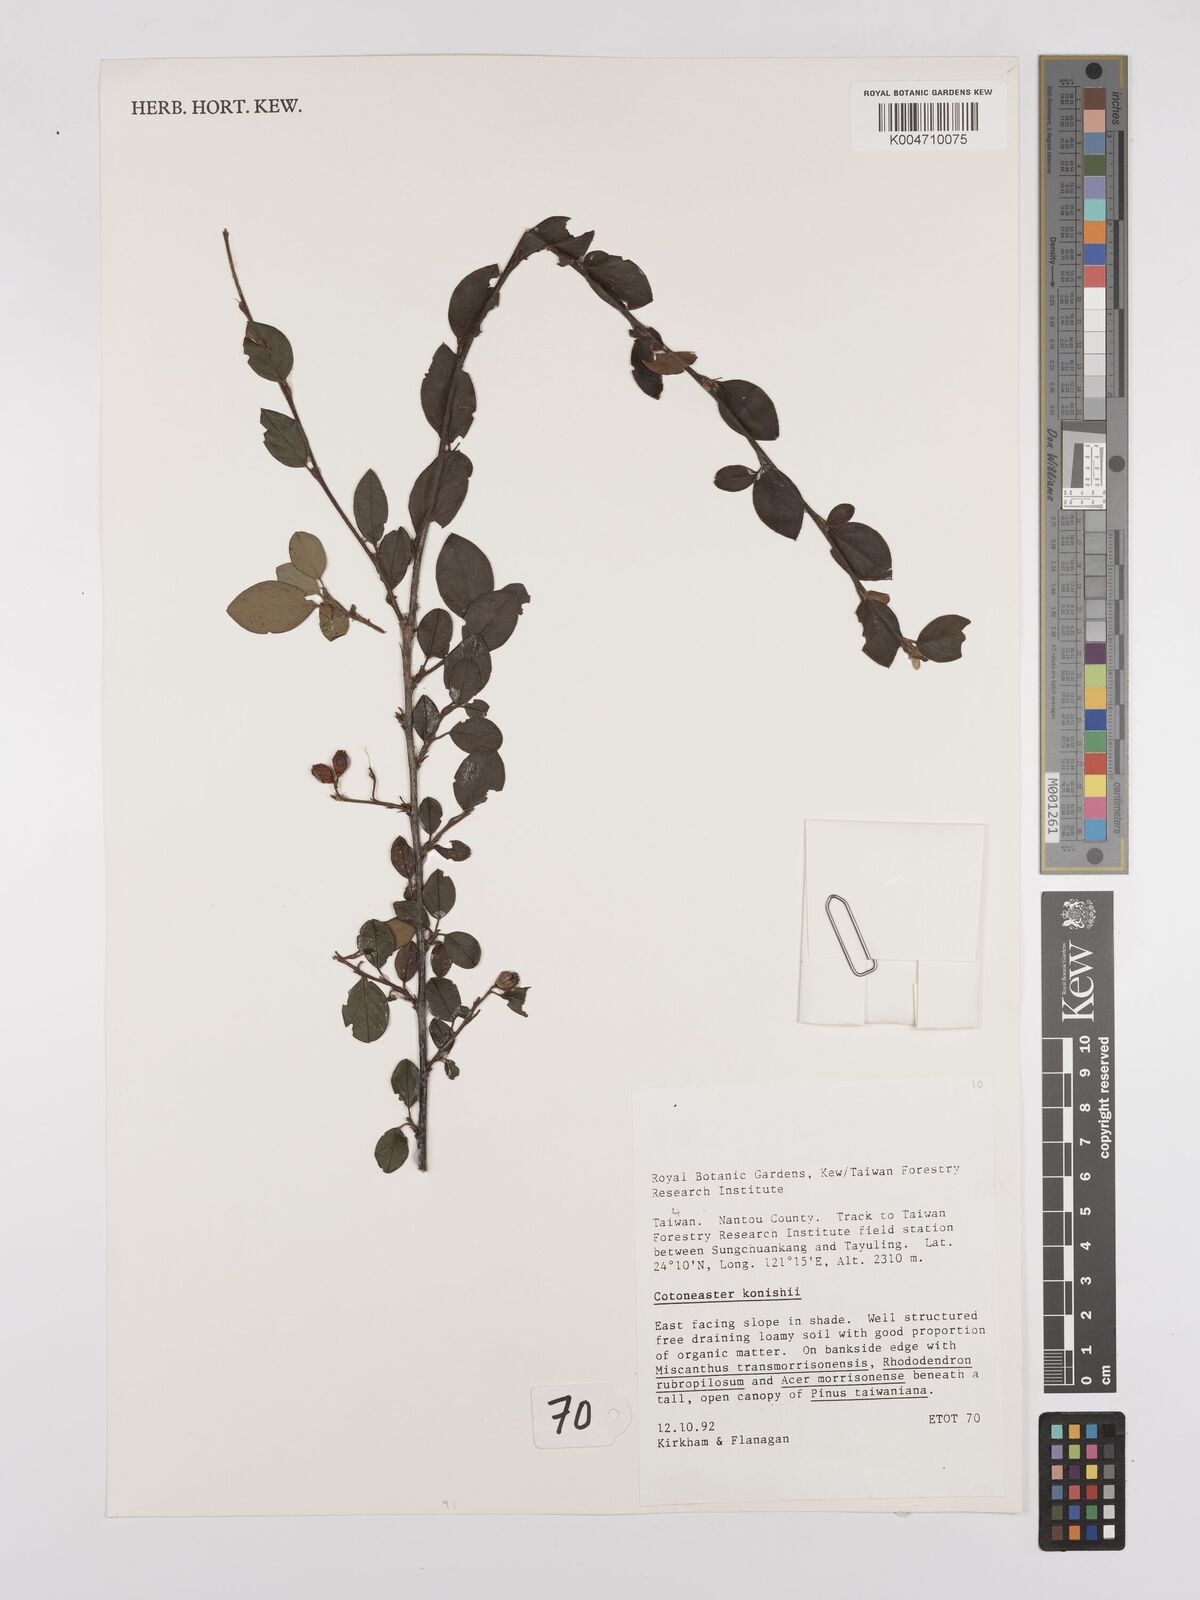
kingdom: Plantae
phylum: Tracheophyta
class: Magnoliopsida
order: Rosales
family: Rosaceae
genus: Cotoneaster
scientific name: Cotoneaster konishii
